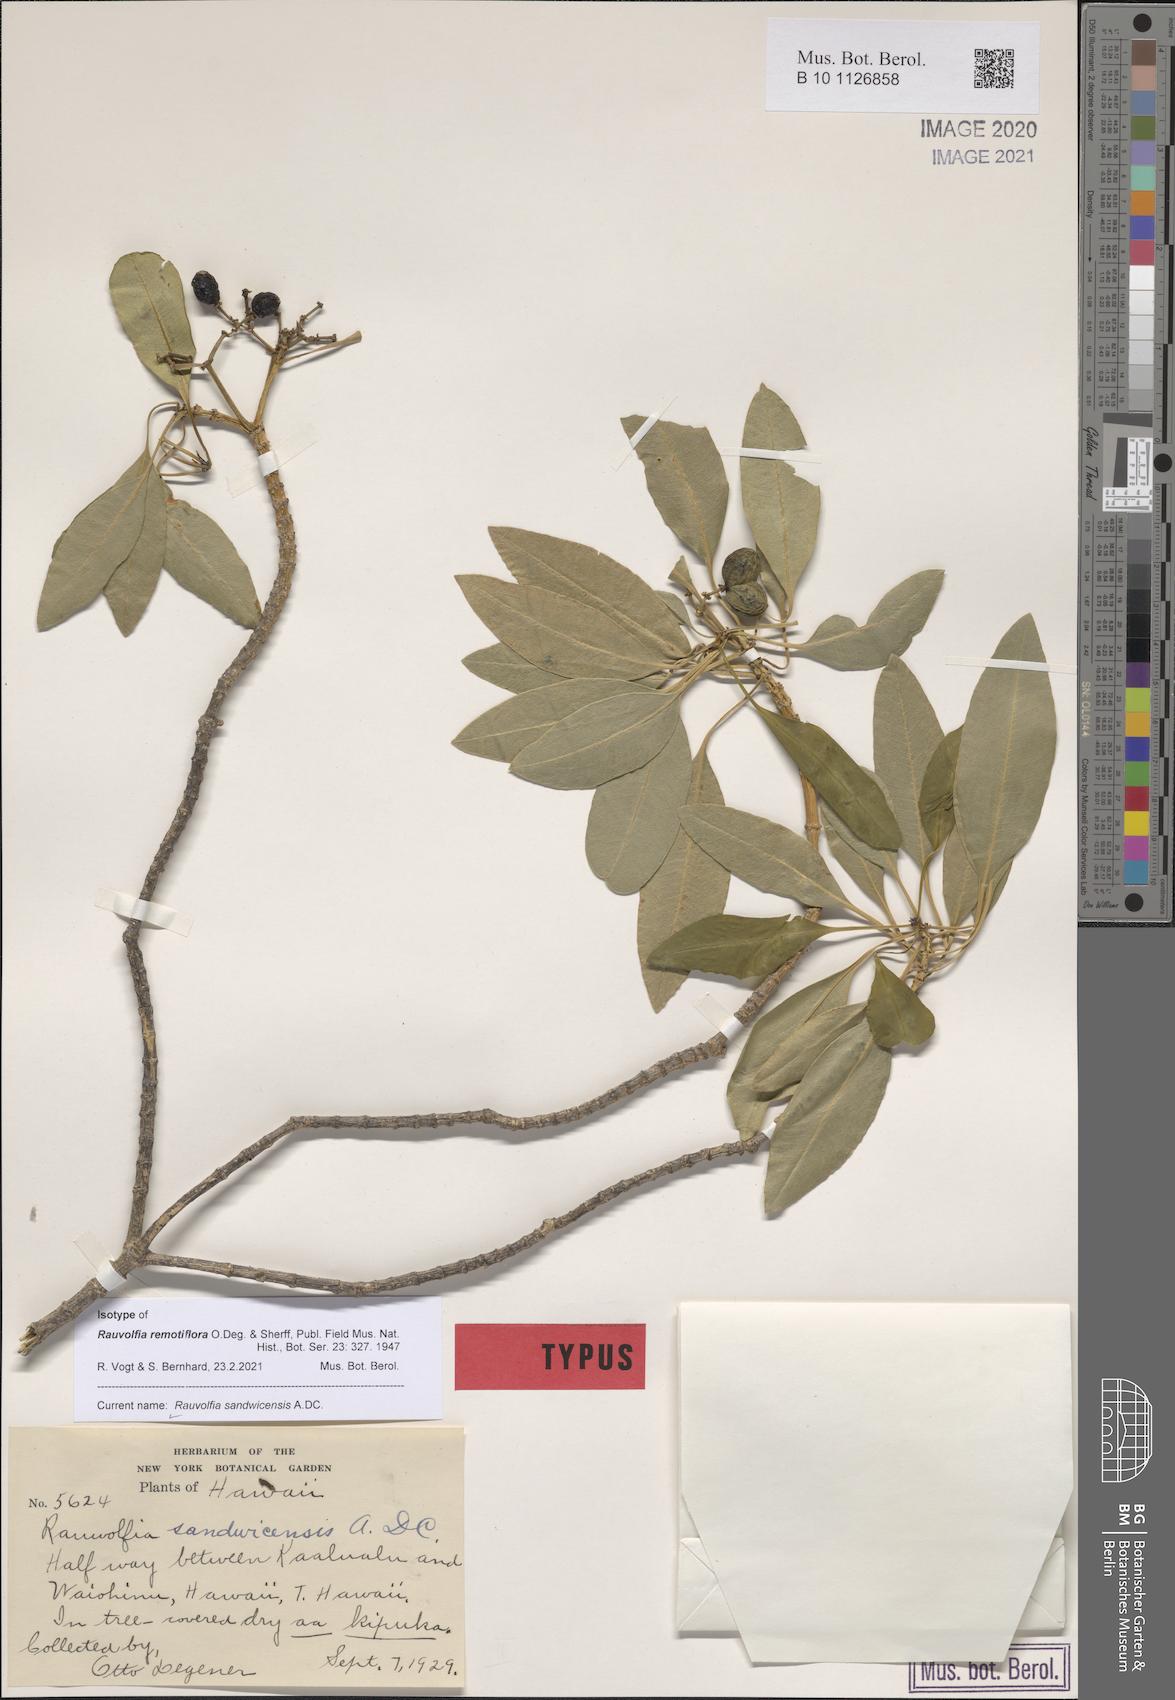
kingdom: Plantae
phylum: Tracheophyta
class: Magnoliopsida
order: Gentianales
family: Apocynaceae
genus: Rauvolfia
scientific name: Rauvolfia sandwicensis
